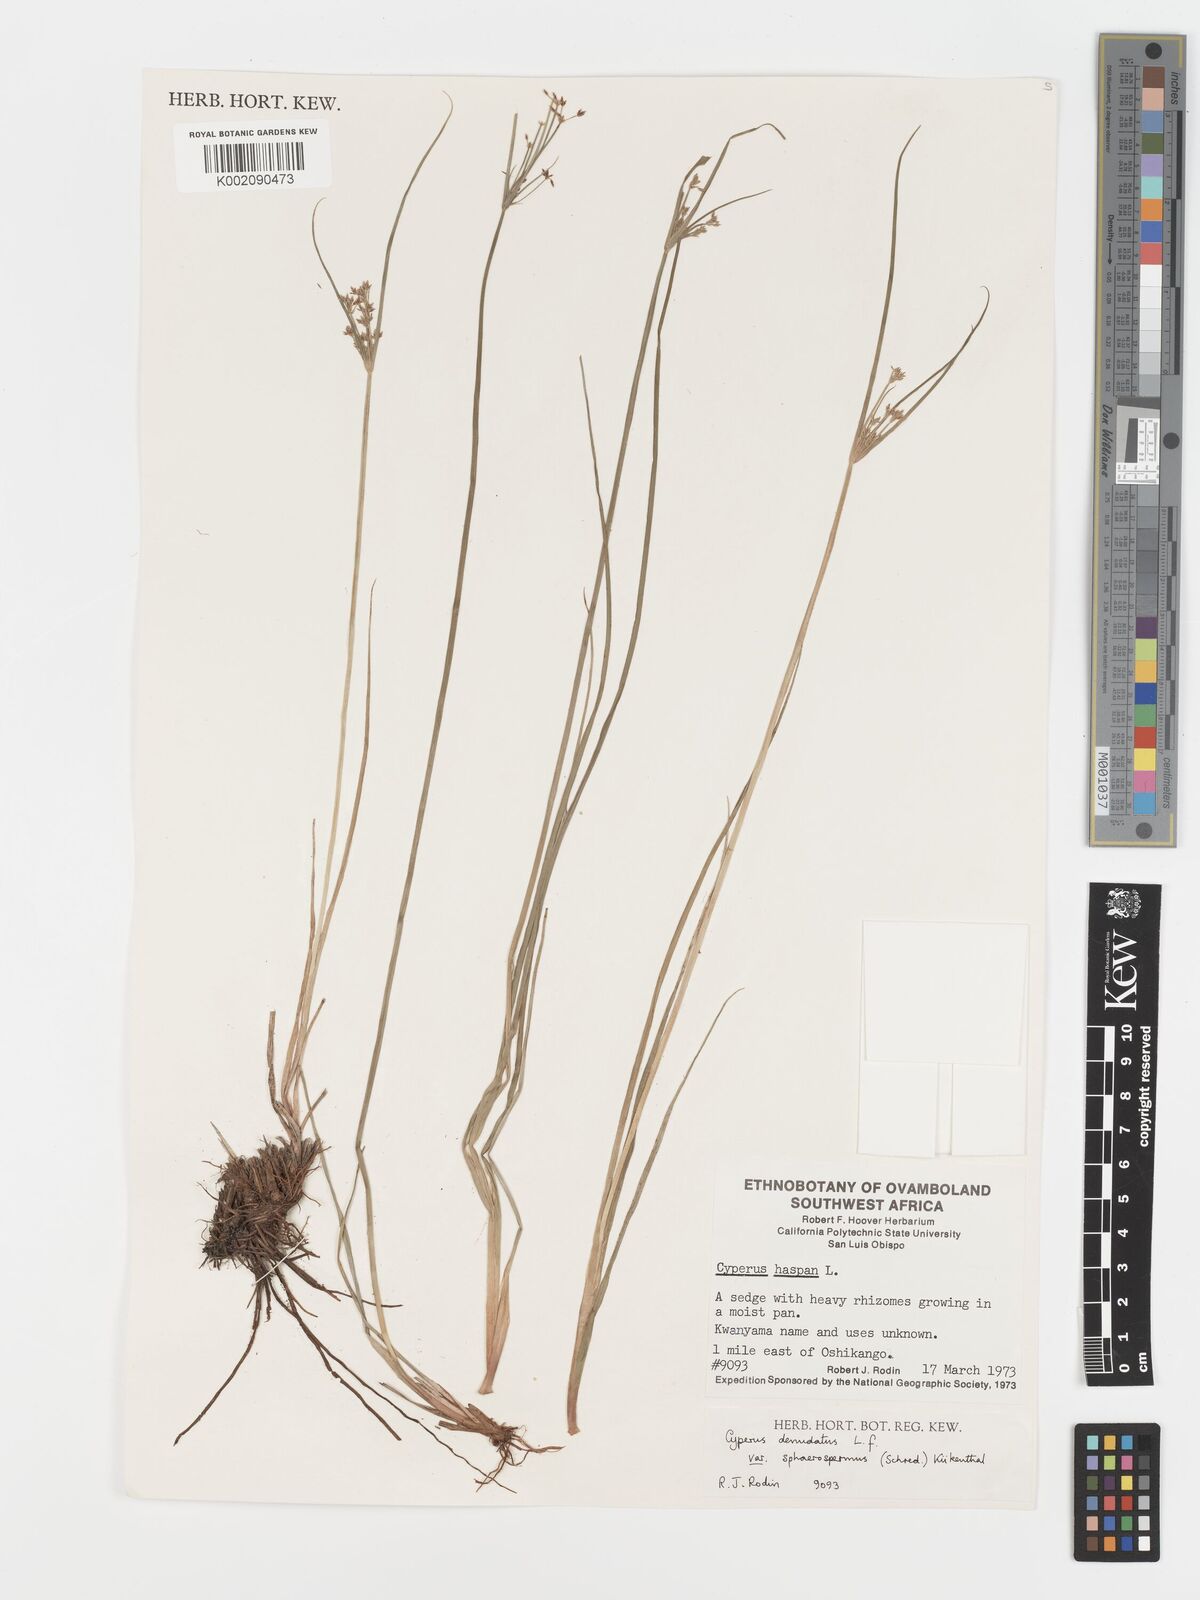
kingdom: Plantae
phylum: Tracheophyta
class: Liliopsida
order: Poales
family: Cyperaceae
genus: Cyperus
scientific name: Cyperus sphaerospermus
